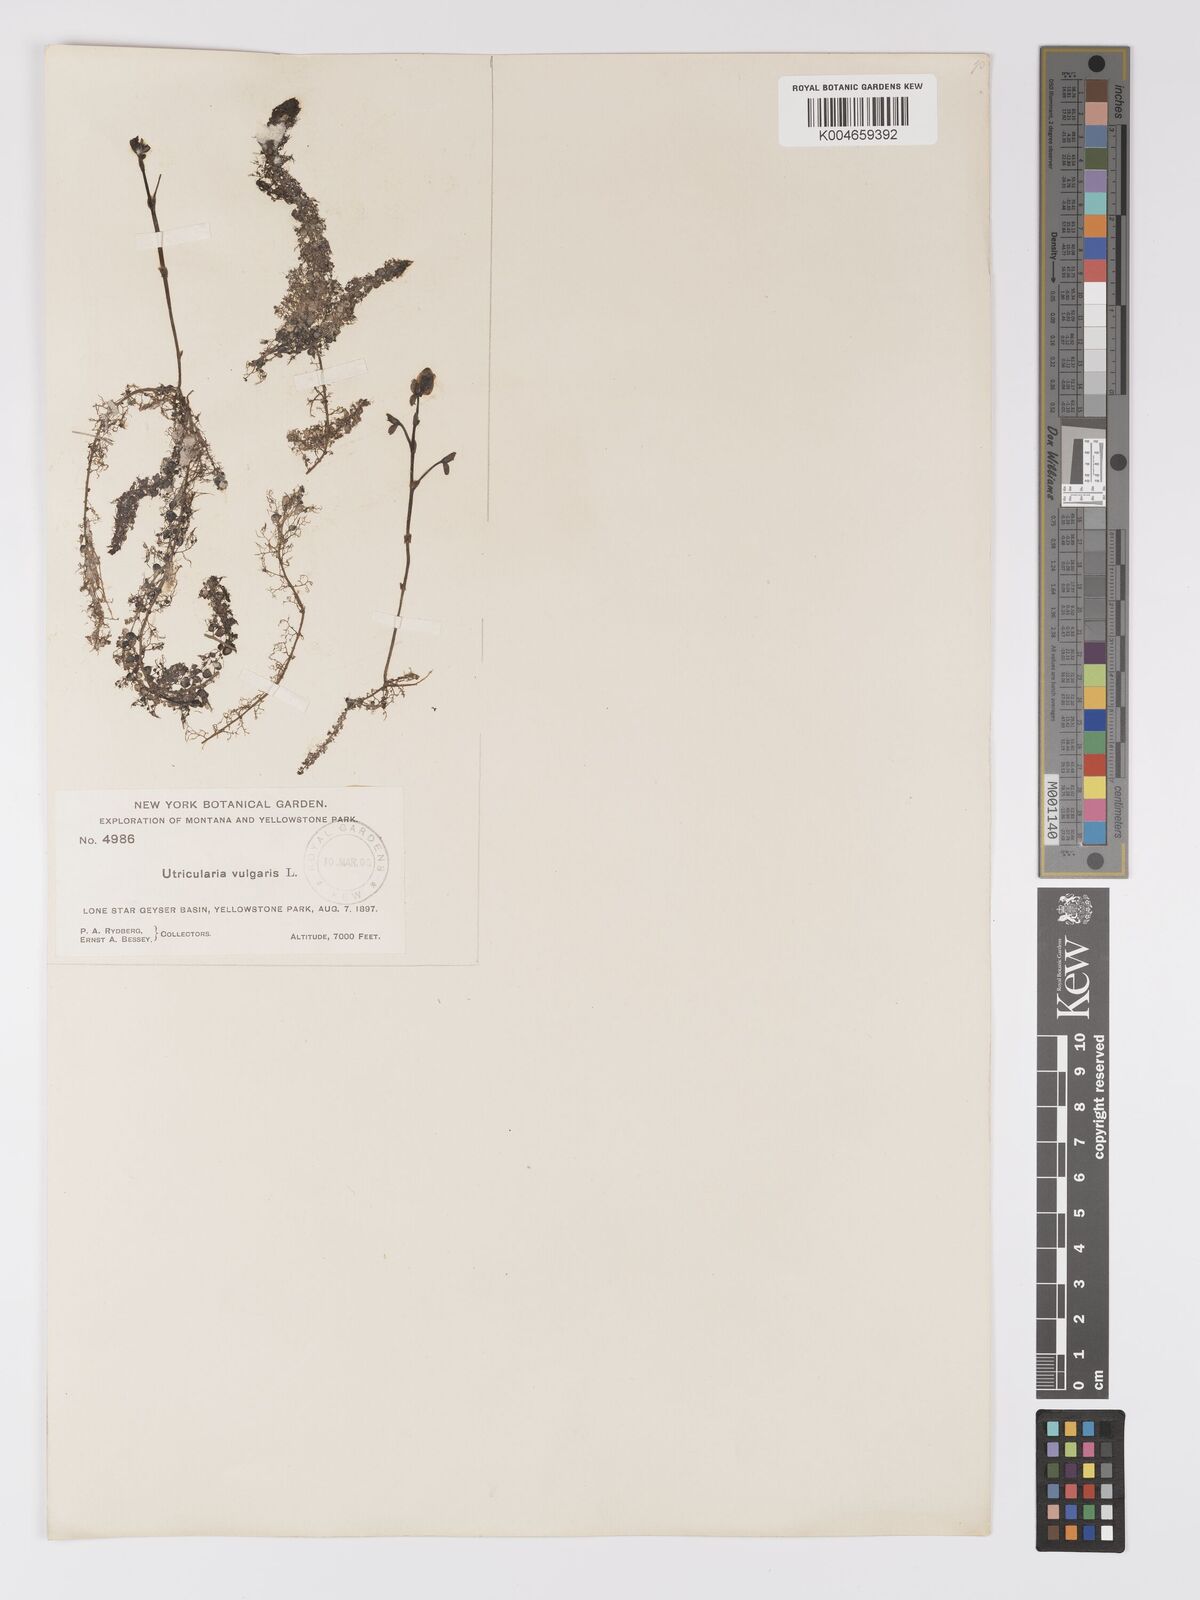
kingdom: Plantae
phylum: Tracheophyta
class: Magnoliopsida
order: Lamiales
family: Lentibulariaceae
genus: Utricularia
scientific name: Utricularia macrorhiza
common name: Common bladderwort
